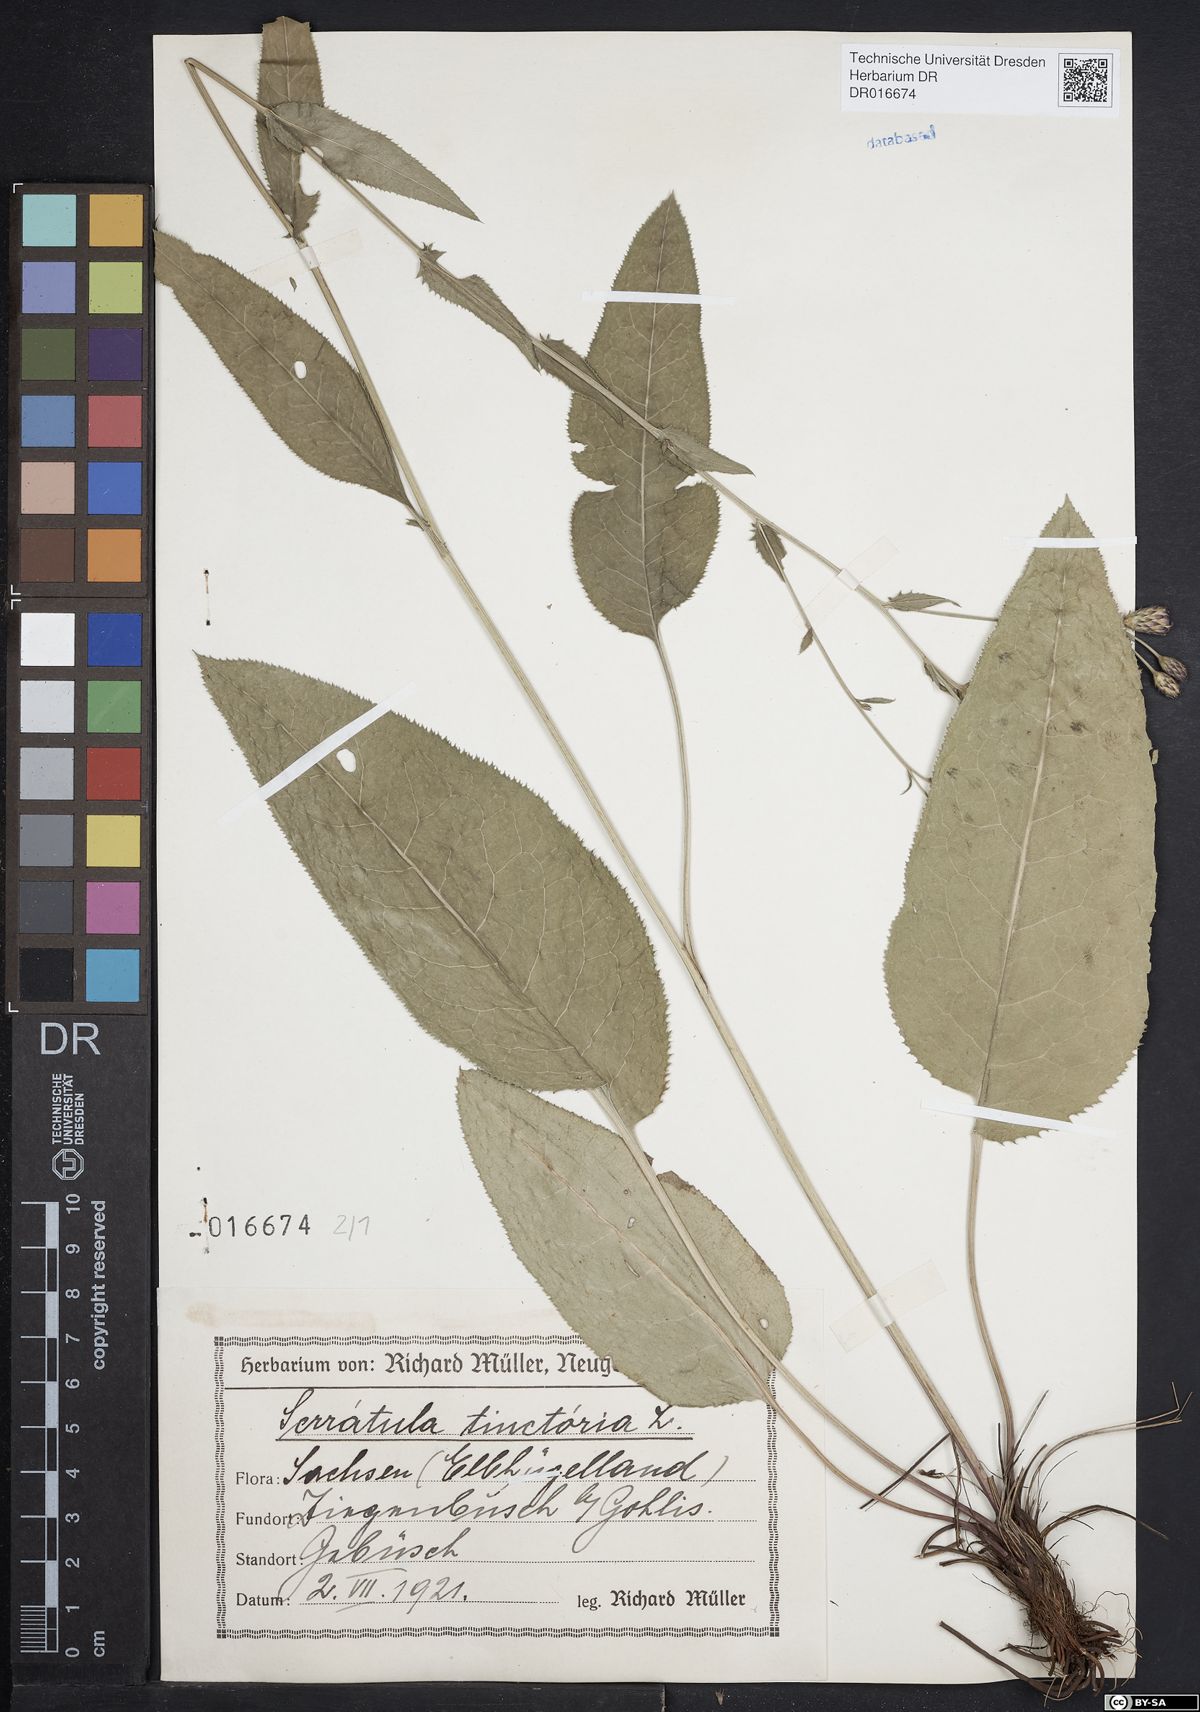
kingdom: Plantae
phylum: Tracheophyta
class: Magnoliopsida
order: Asterales
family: Asteraceae
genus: Serratula
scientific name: Serratula tinctoria
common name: Saw-wort
